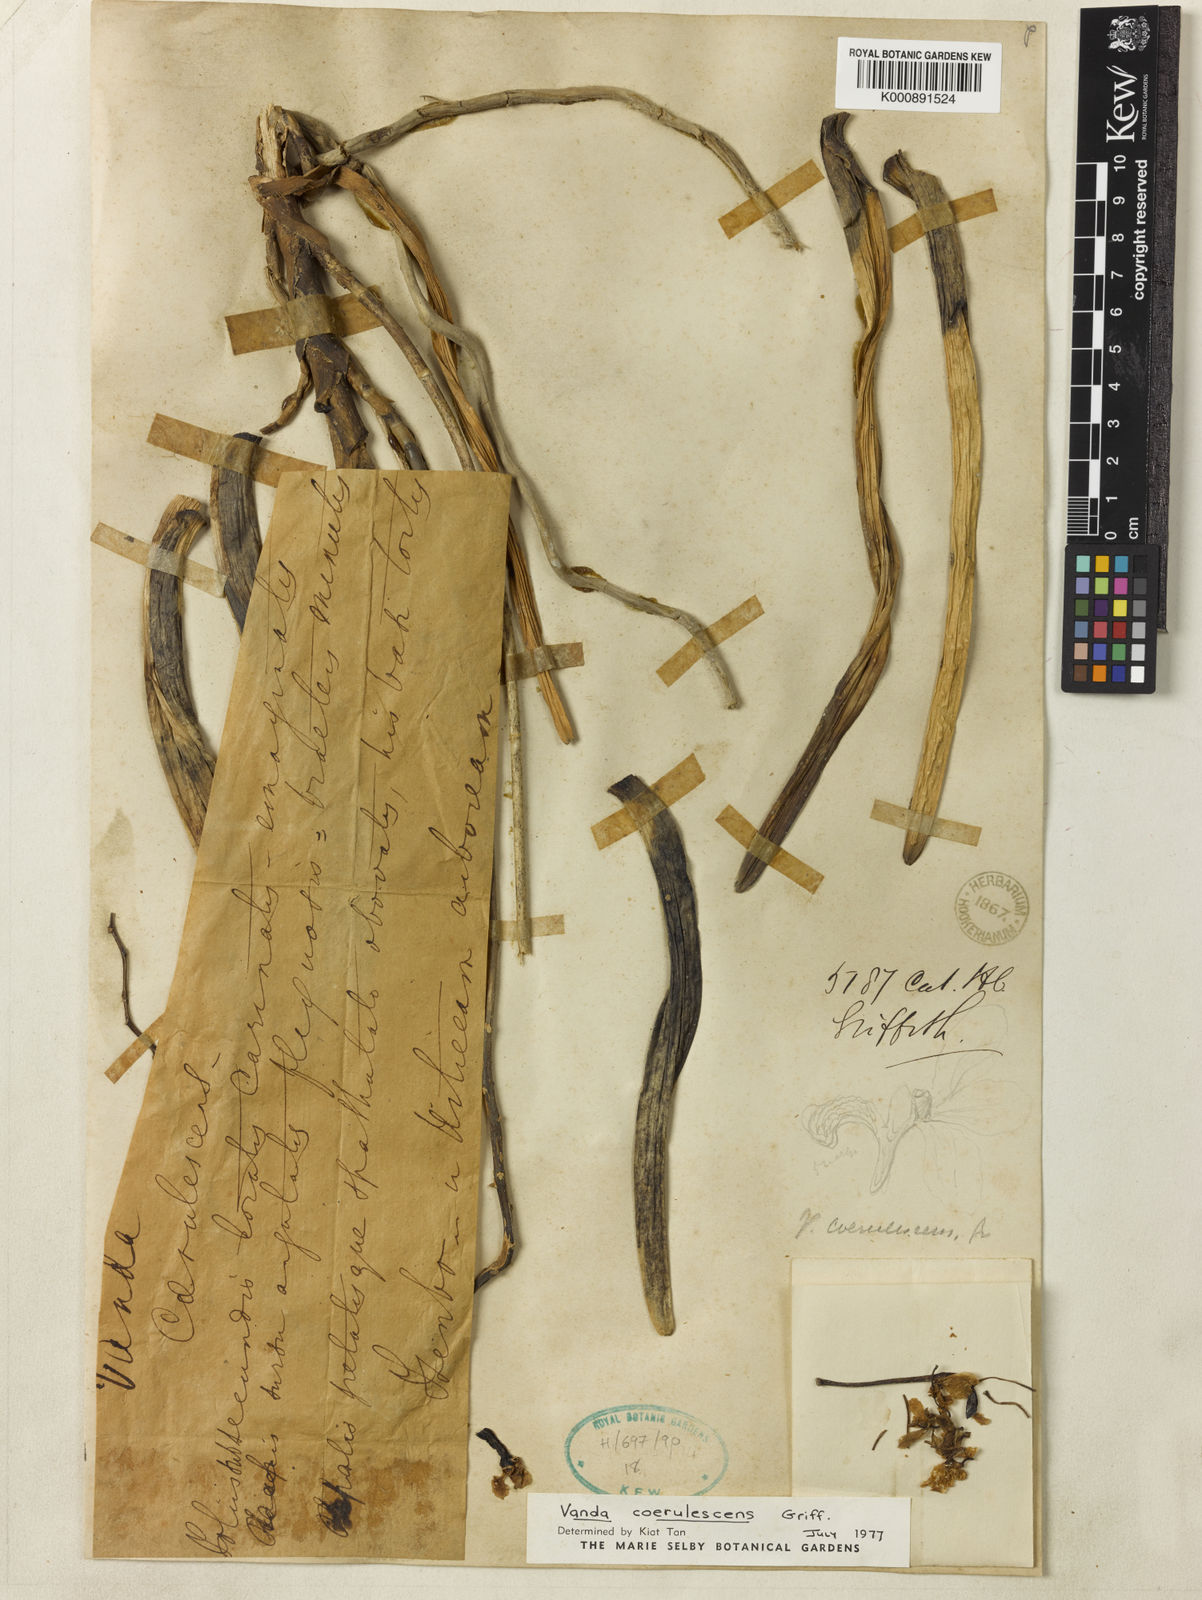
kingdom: Plantae
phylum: Tracheophyta
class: Liliopsida
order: Asparagales
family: Orchidaceae
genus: Vanda
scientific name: Vanda coerulescens
